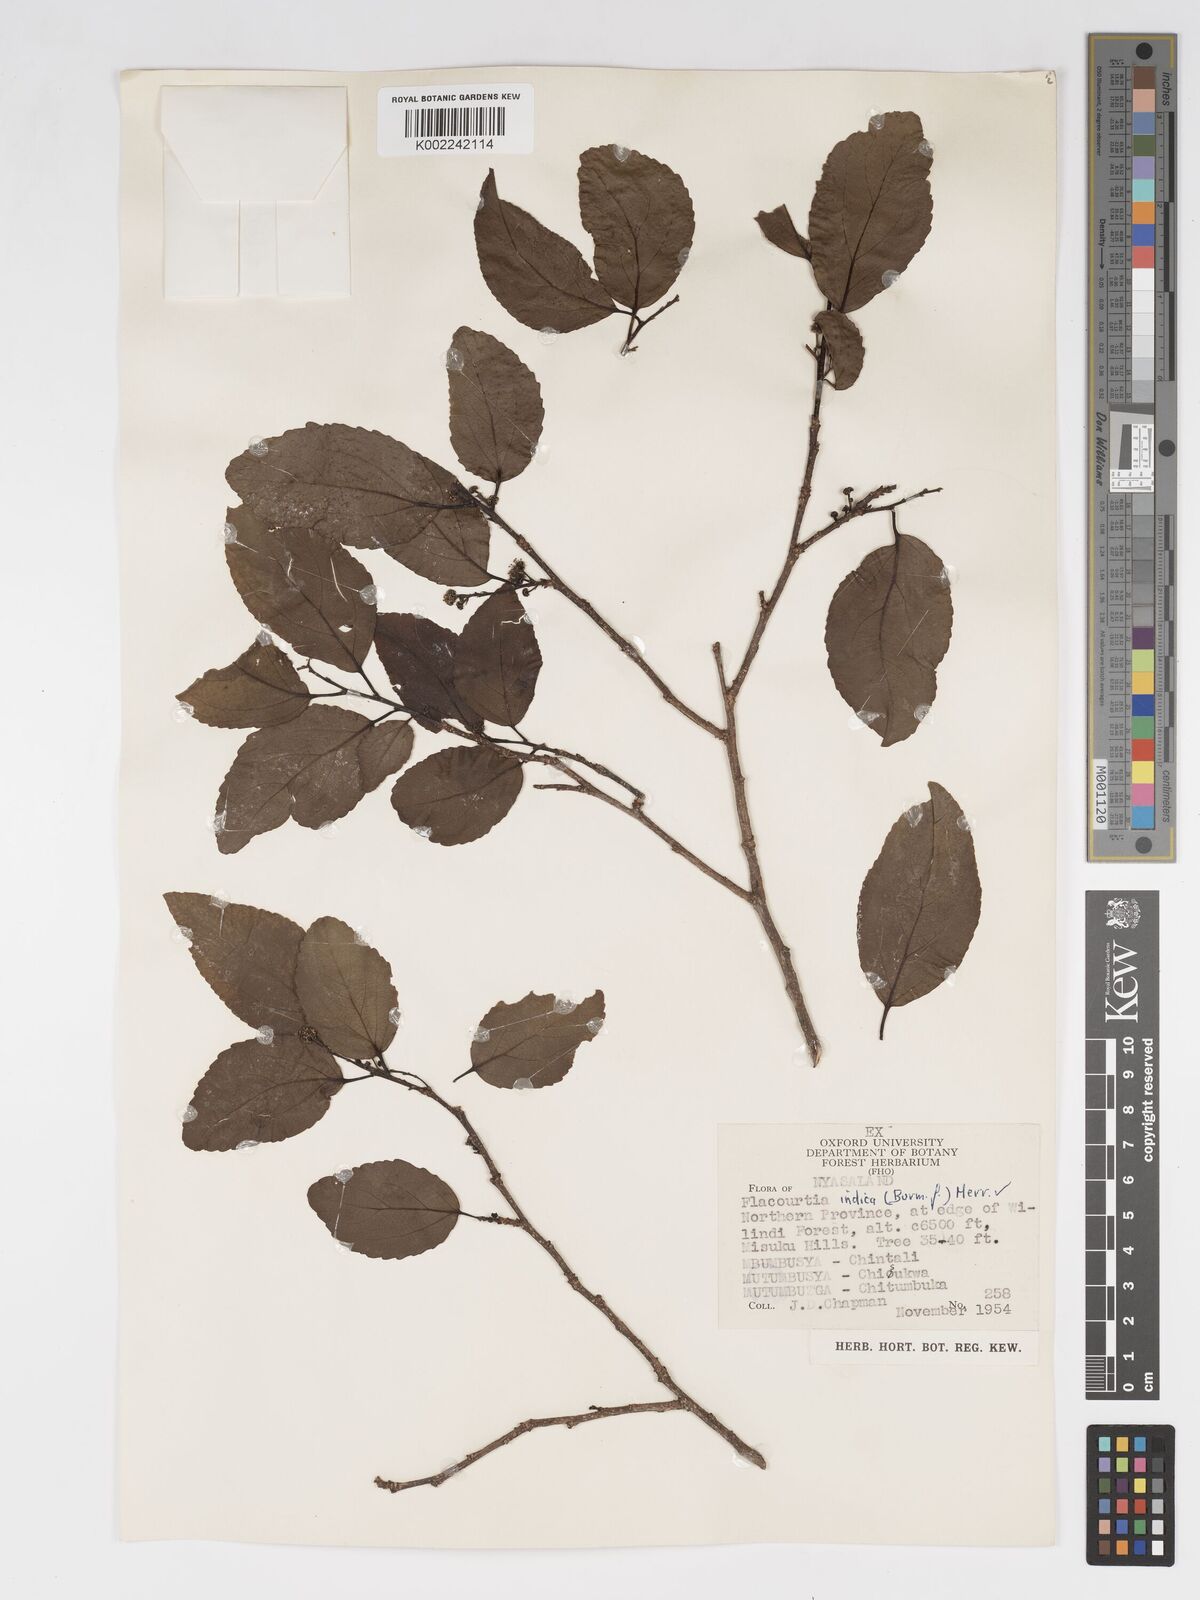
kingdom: Plantae
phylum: Tracheophyta
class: Magnoliopsida
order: Malpighiales
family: Salicaceae
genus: Flacourtia
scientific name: Flacourtia indica
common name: Governor's plum
